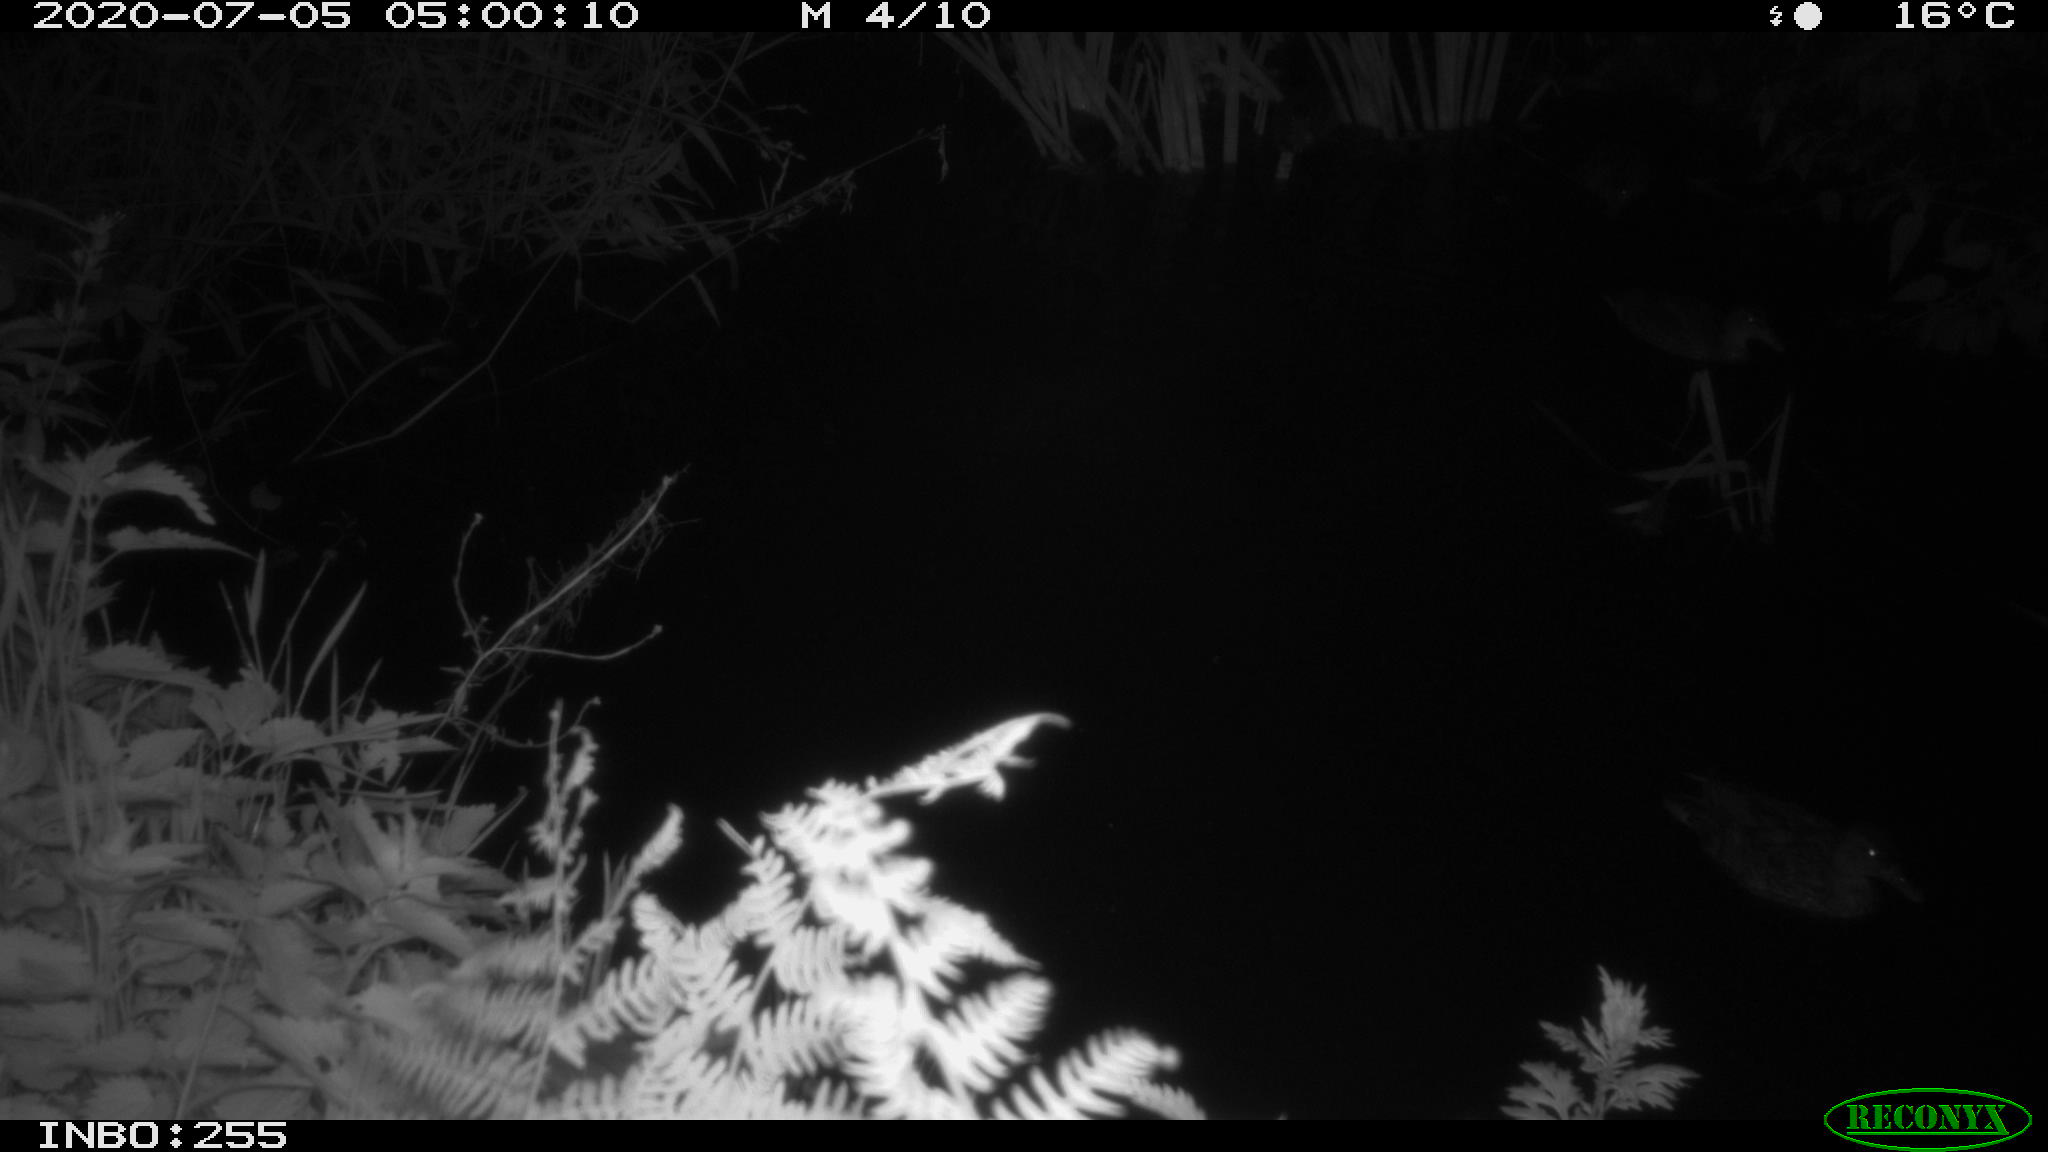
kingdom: Animalia
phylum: Chordata
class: Aves
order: Anseriformes
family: Anatidae
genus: Anas
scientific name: Anas platyrhynchos
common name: Mallard
